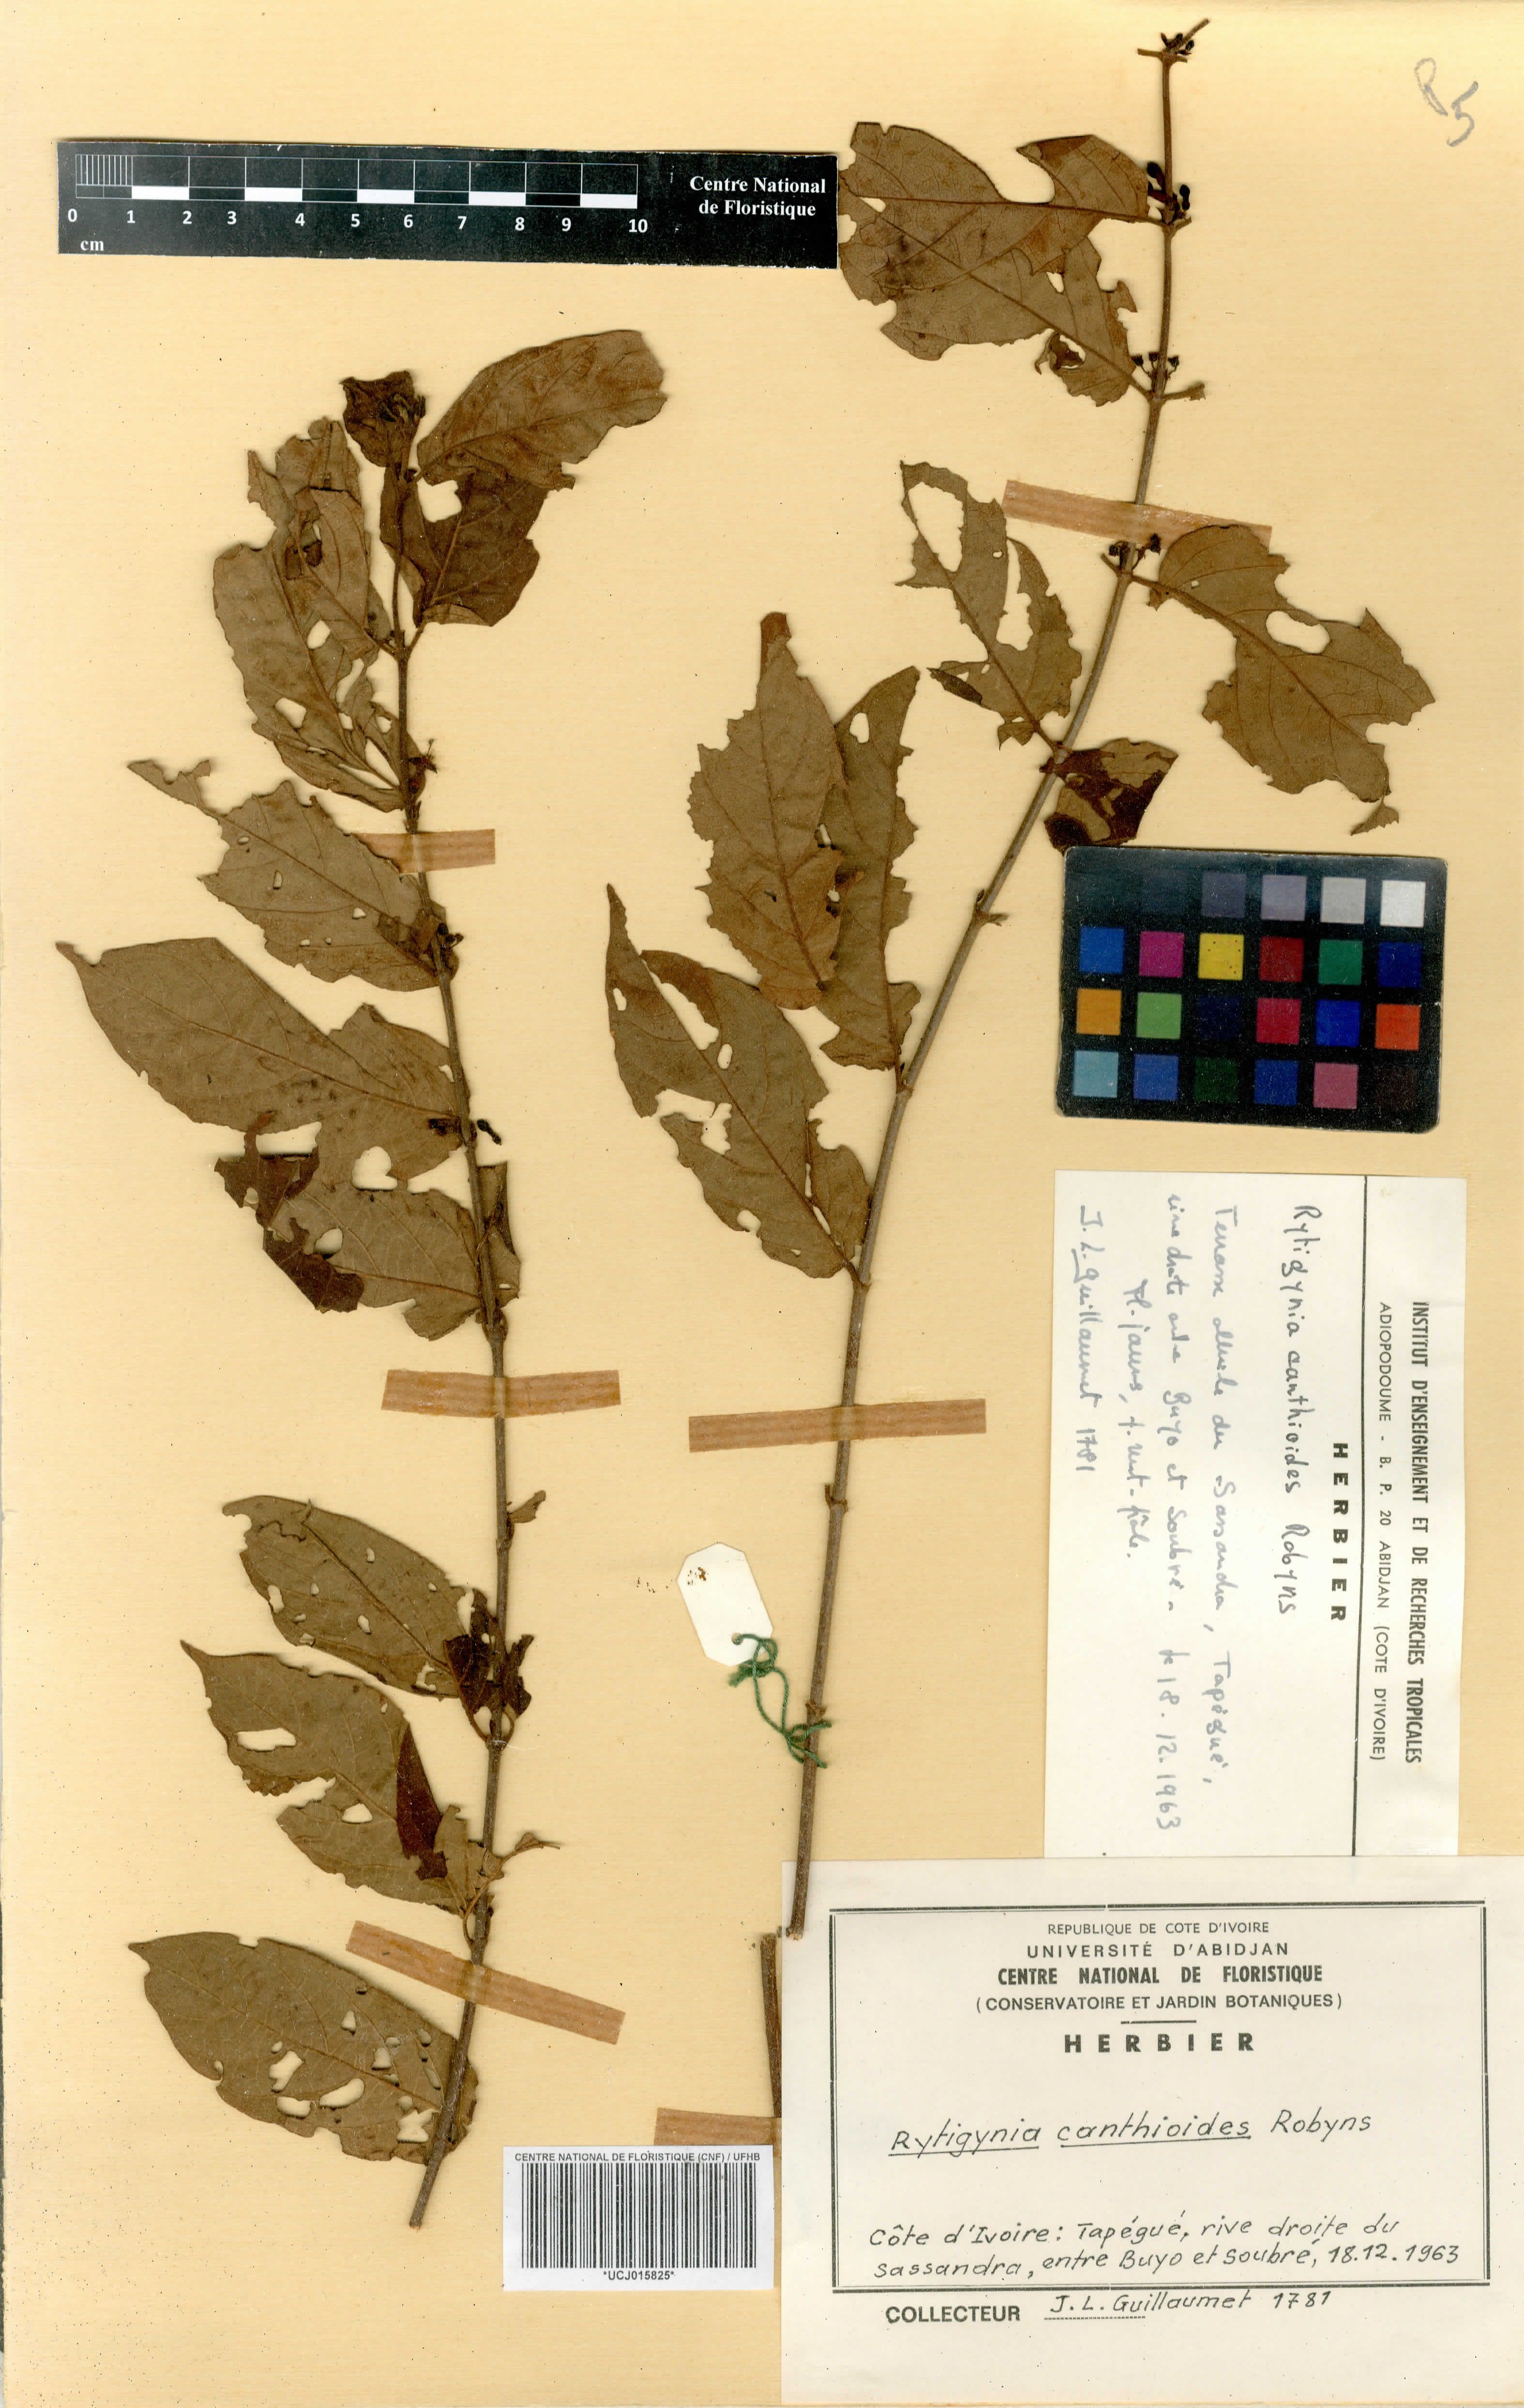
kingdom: Plantae
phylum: Tracheophyta
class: Magnoliopsida
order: Gentianales
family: Rubiaceae
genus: Rytigynia
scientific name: Rytigynia canthioides
